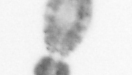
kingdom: Animalia
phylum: Arthropoda
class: Copepoda
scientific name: Copepoda
